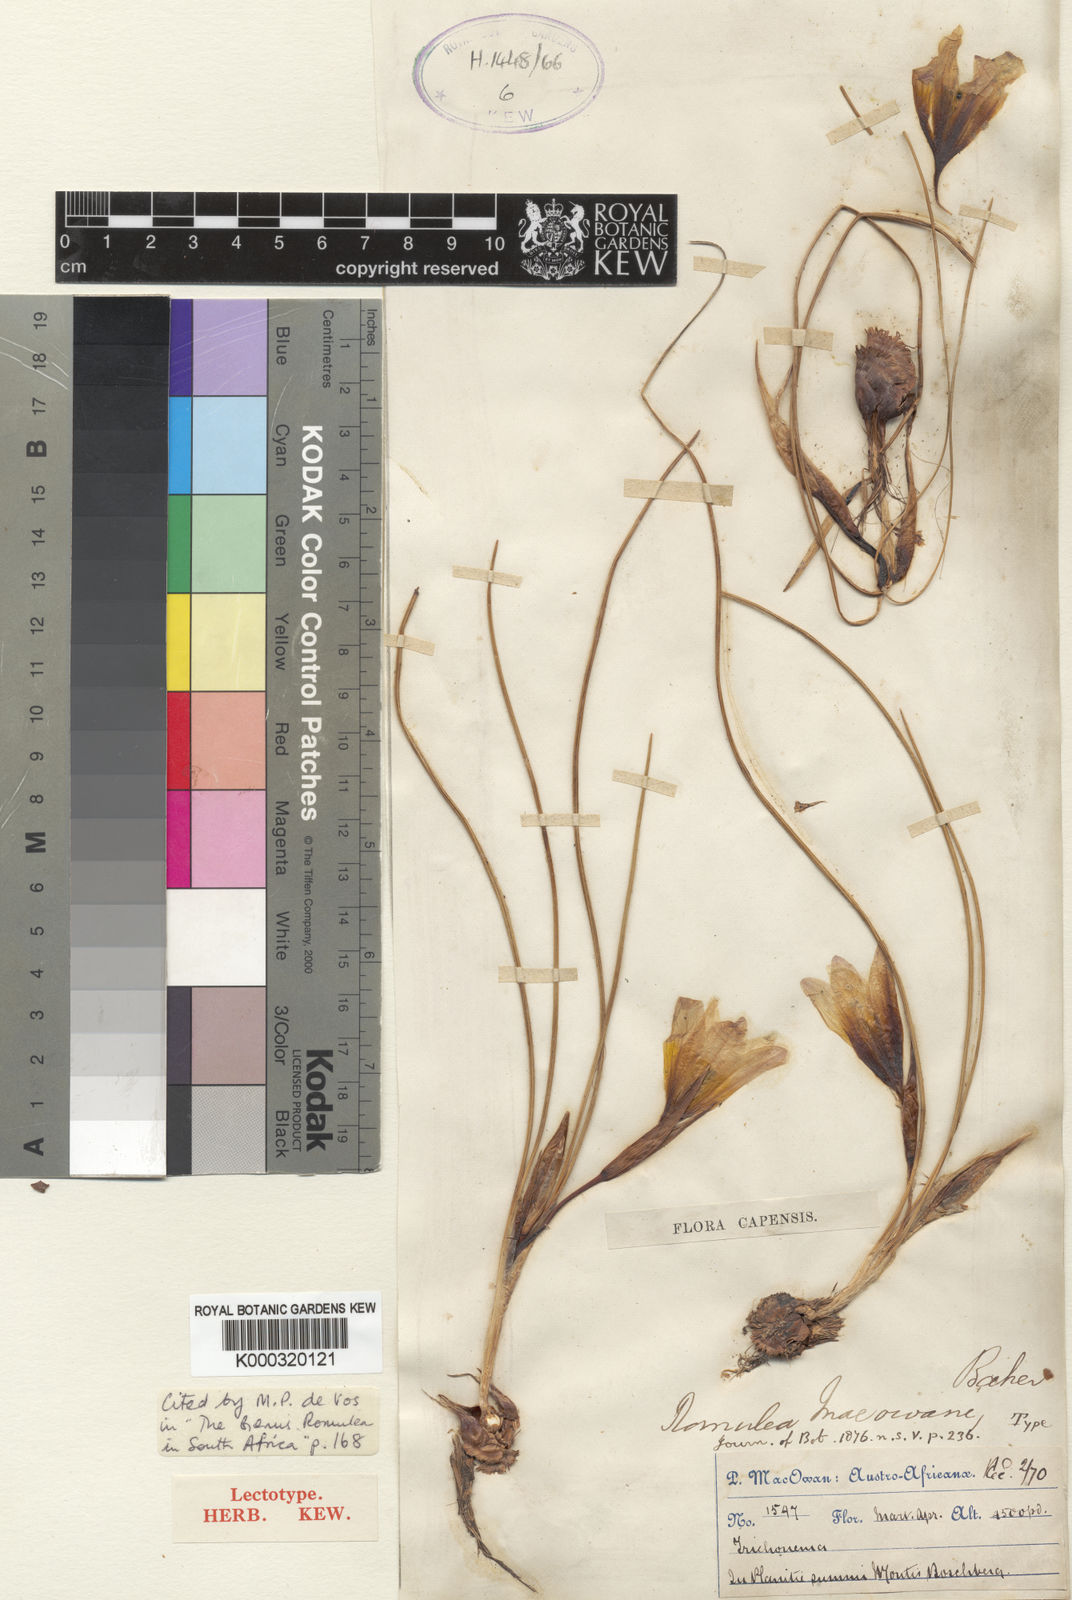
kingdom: Plantae
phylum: Tracheophyta
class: Liliopsida
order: Asparagales
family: Iridaceae
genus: Romulea
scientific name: Romulea macowanii
